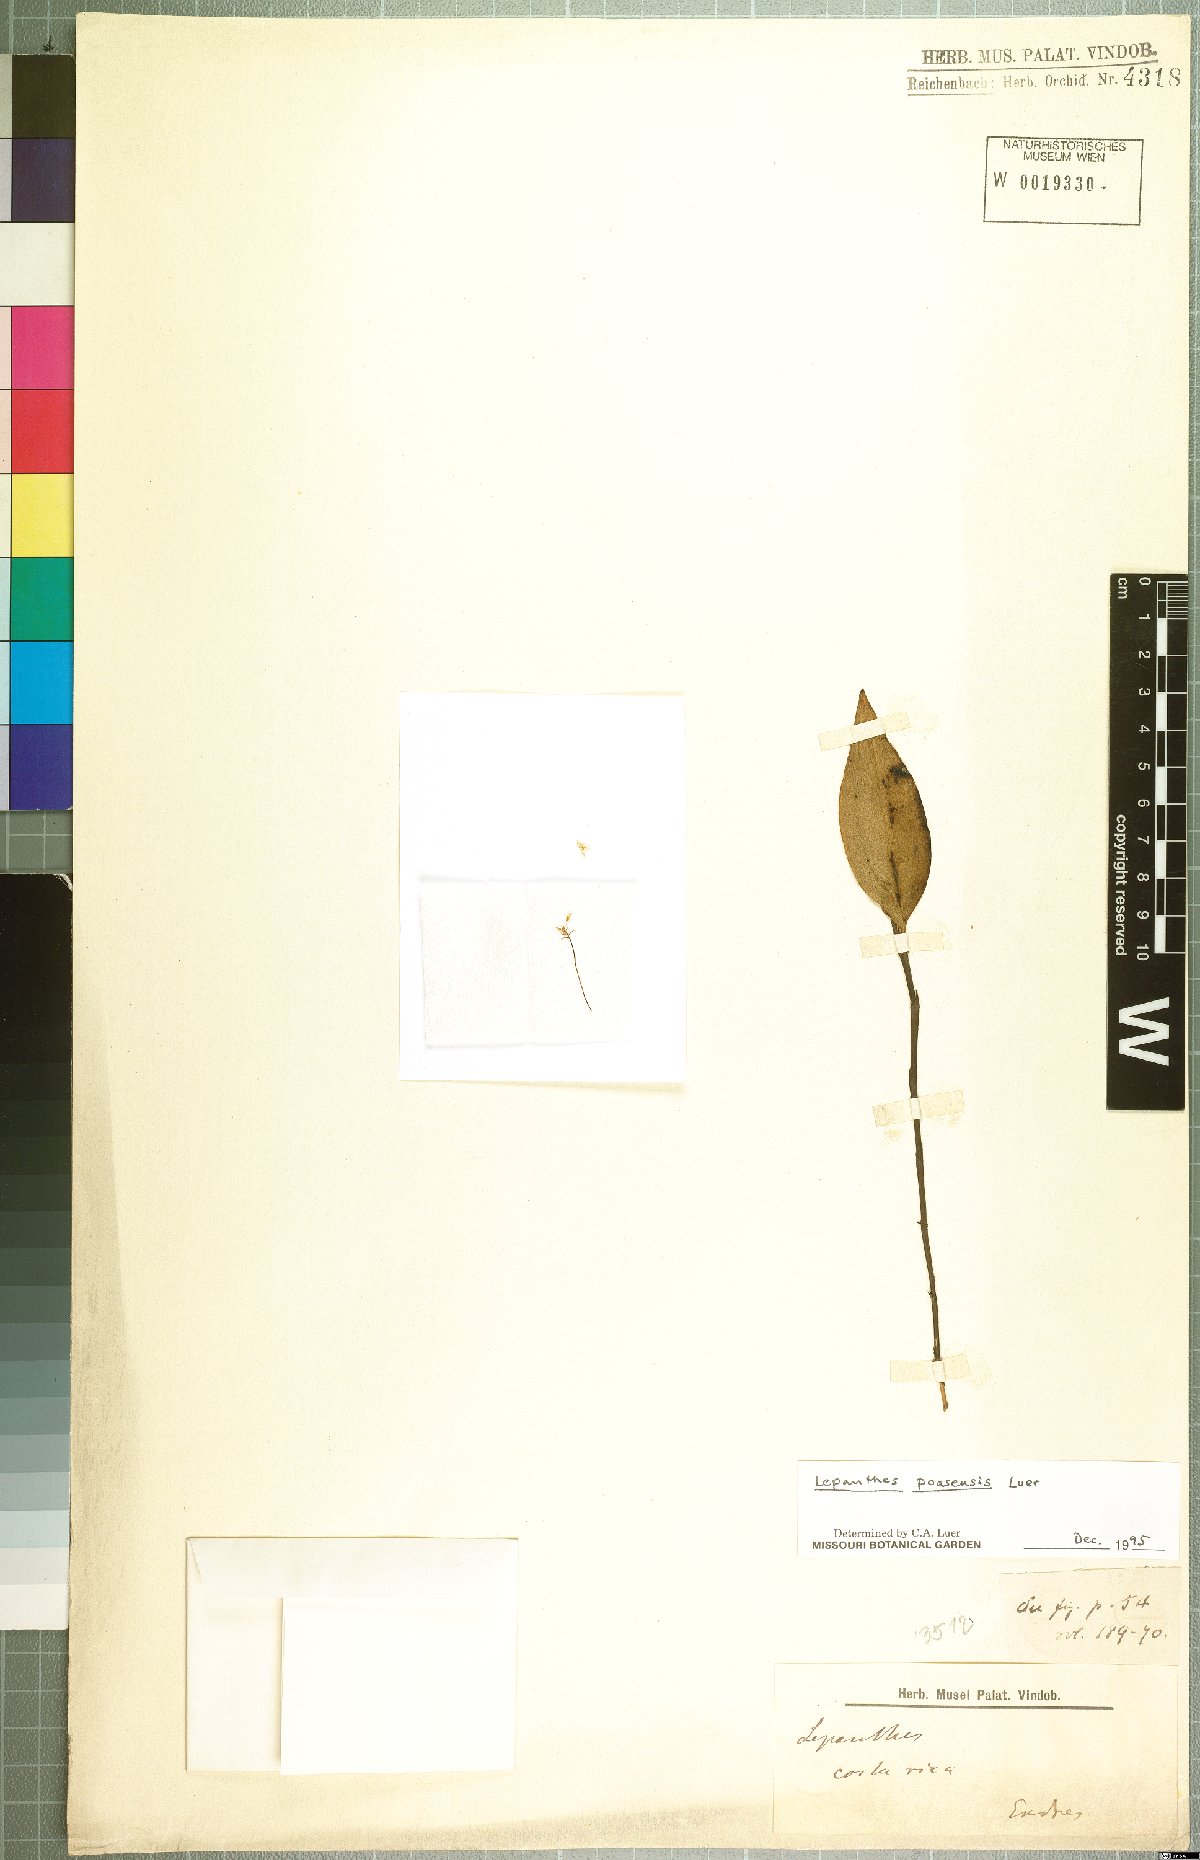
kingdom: Plantae
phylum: Tracheophyta
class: Liliopsida
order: Asparagales
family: Orchidaceae
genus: Lepanthes
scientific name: Lepanthes poasensis
